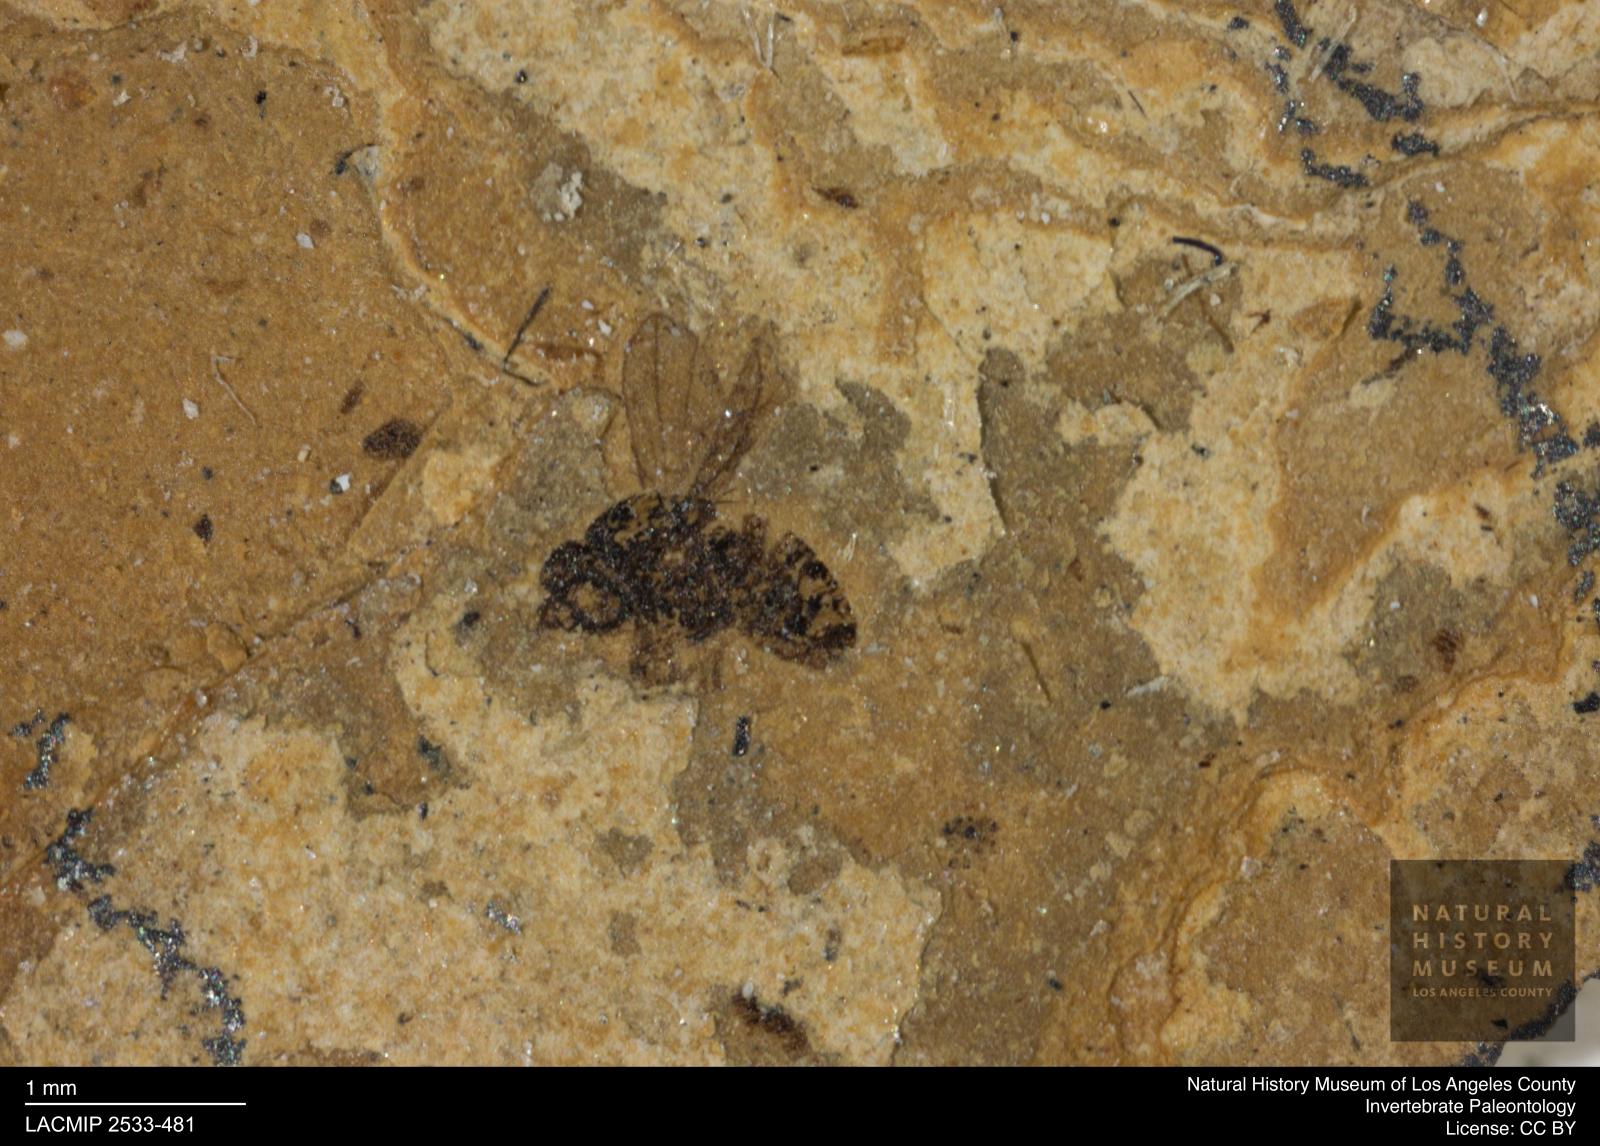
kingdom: Animalia
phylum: Arthropoda
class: Insecta
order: Diptera
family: Chloropidae
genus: Oscinella
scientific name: Oscinella dormescens
